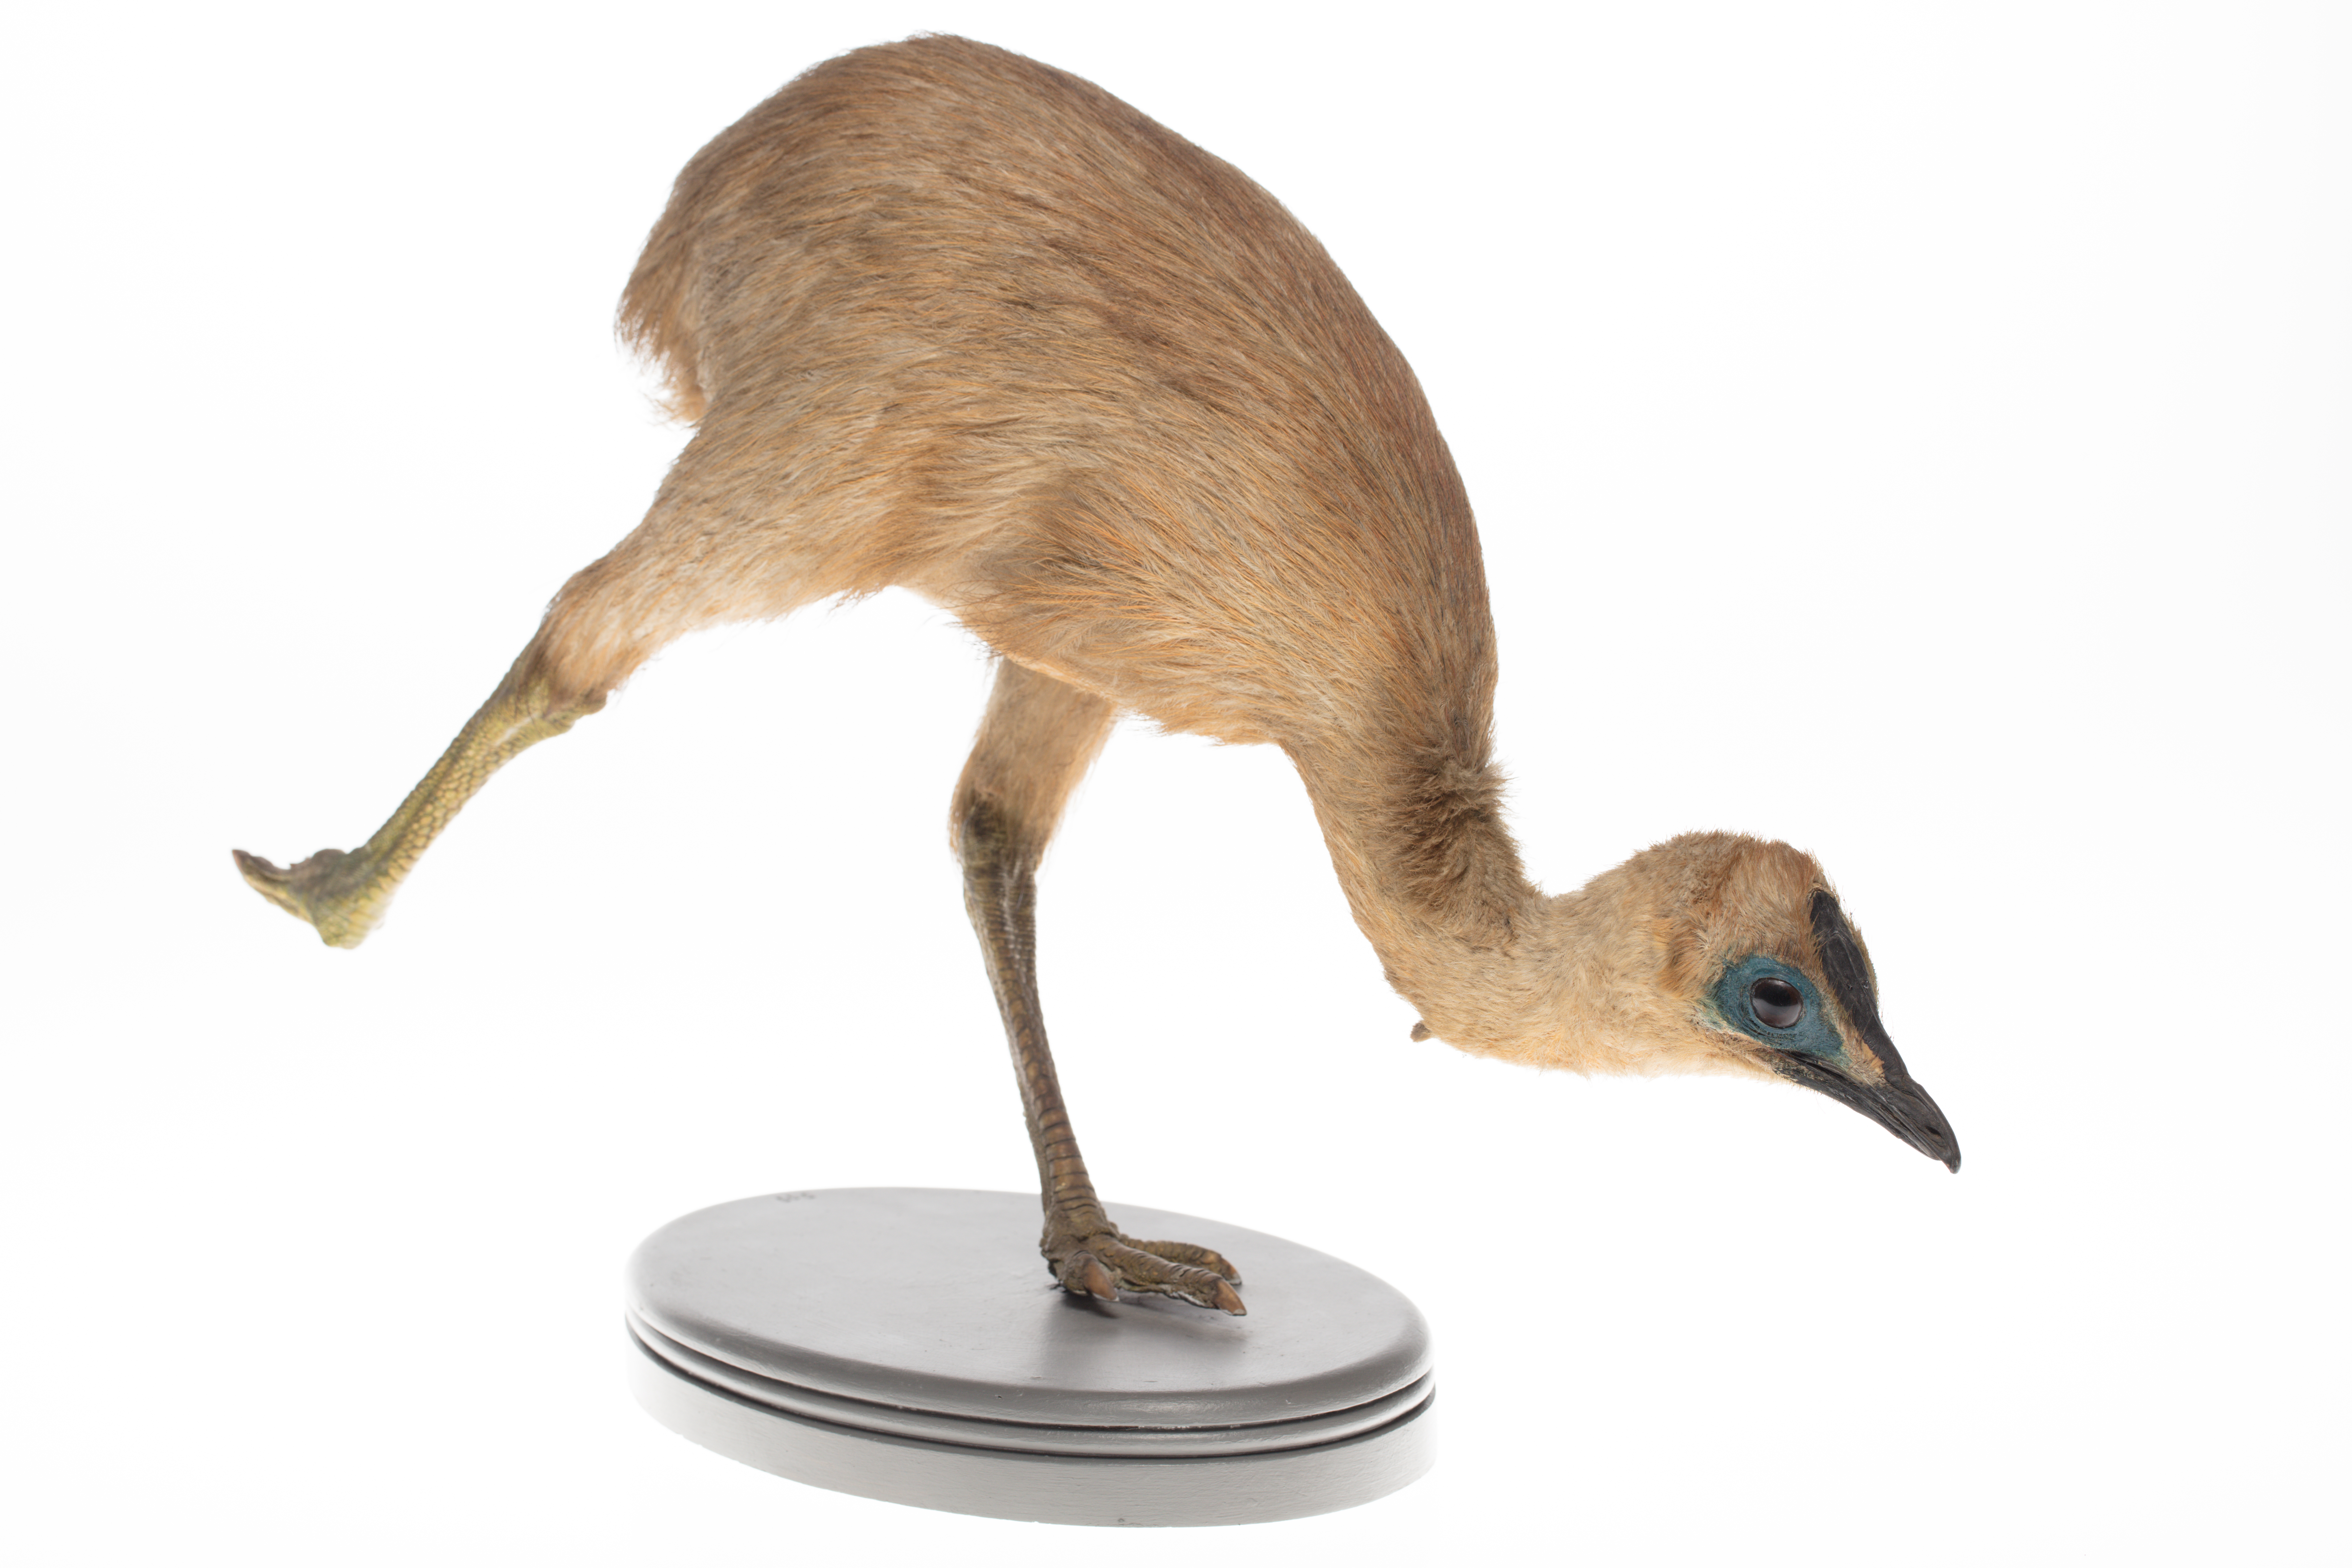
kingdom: Animalia
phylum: Chordata
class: Aves
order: Casuariiformes
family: Casuariidae
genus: Casuarius
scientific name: Casuarius casuarius
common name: Southern cassowary
